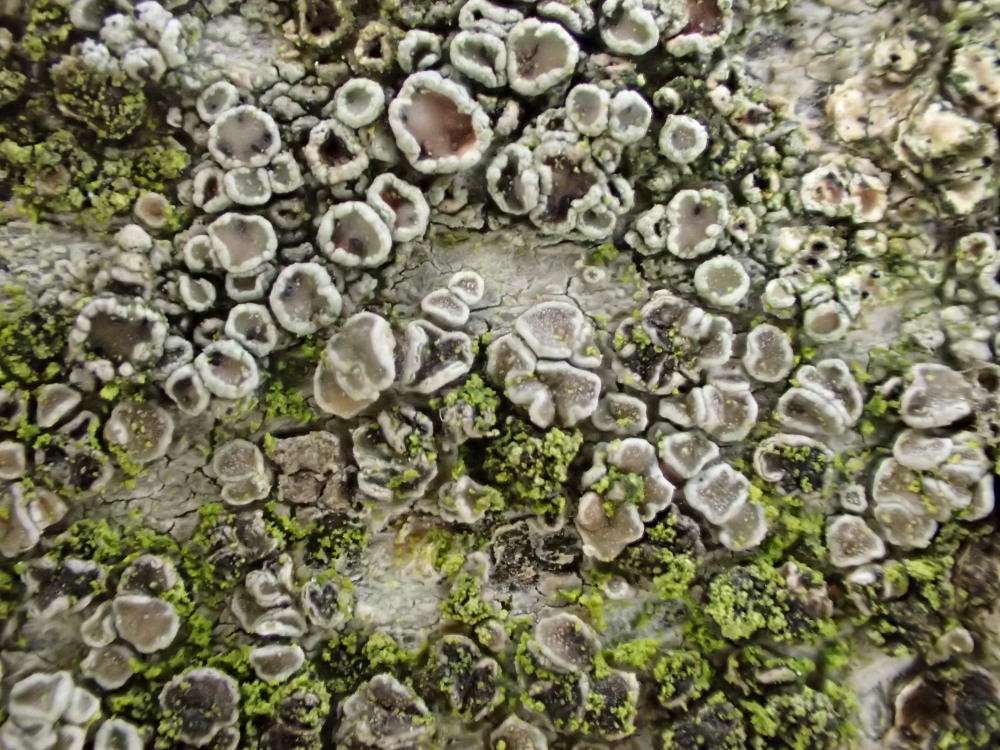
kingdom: Fungi
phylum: Ascomycota
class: Lecanoromycetes
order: Lecanorales
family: Lecanoraceae
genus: Lecanora
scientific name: Lecanora chlarotera
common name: brun kantskivelav
